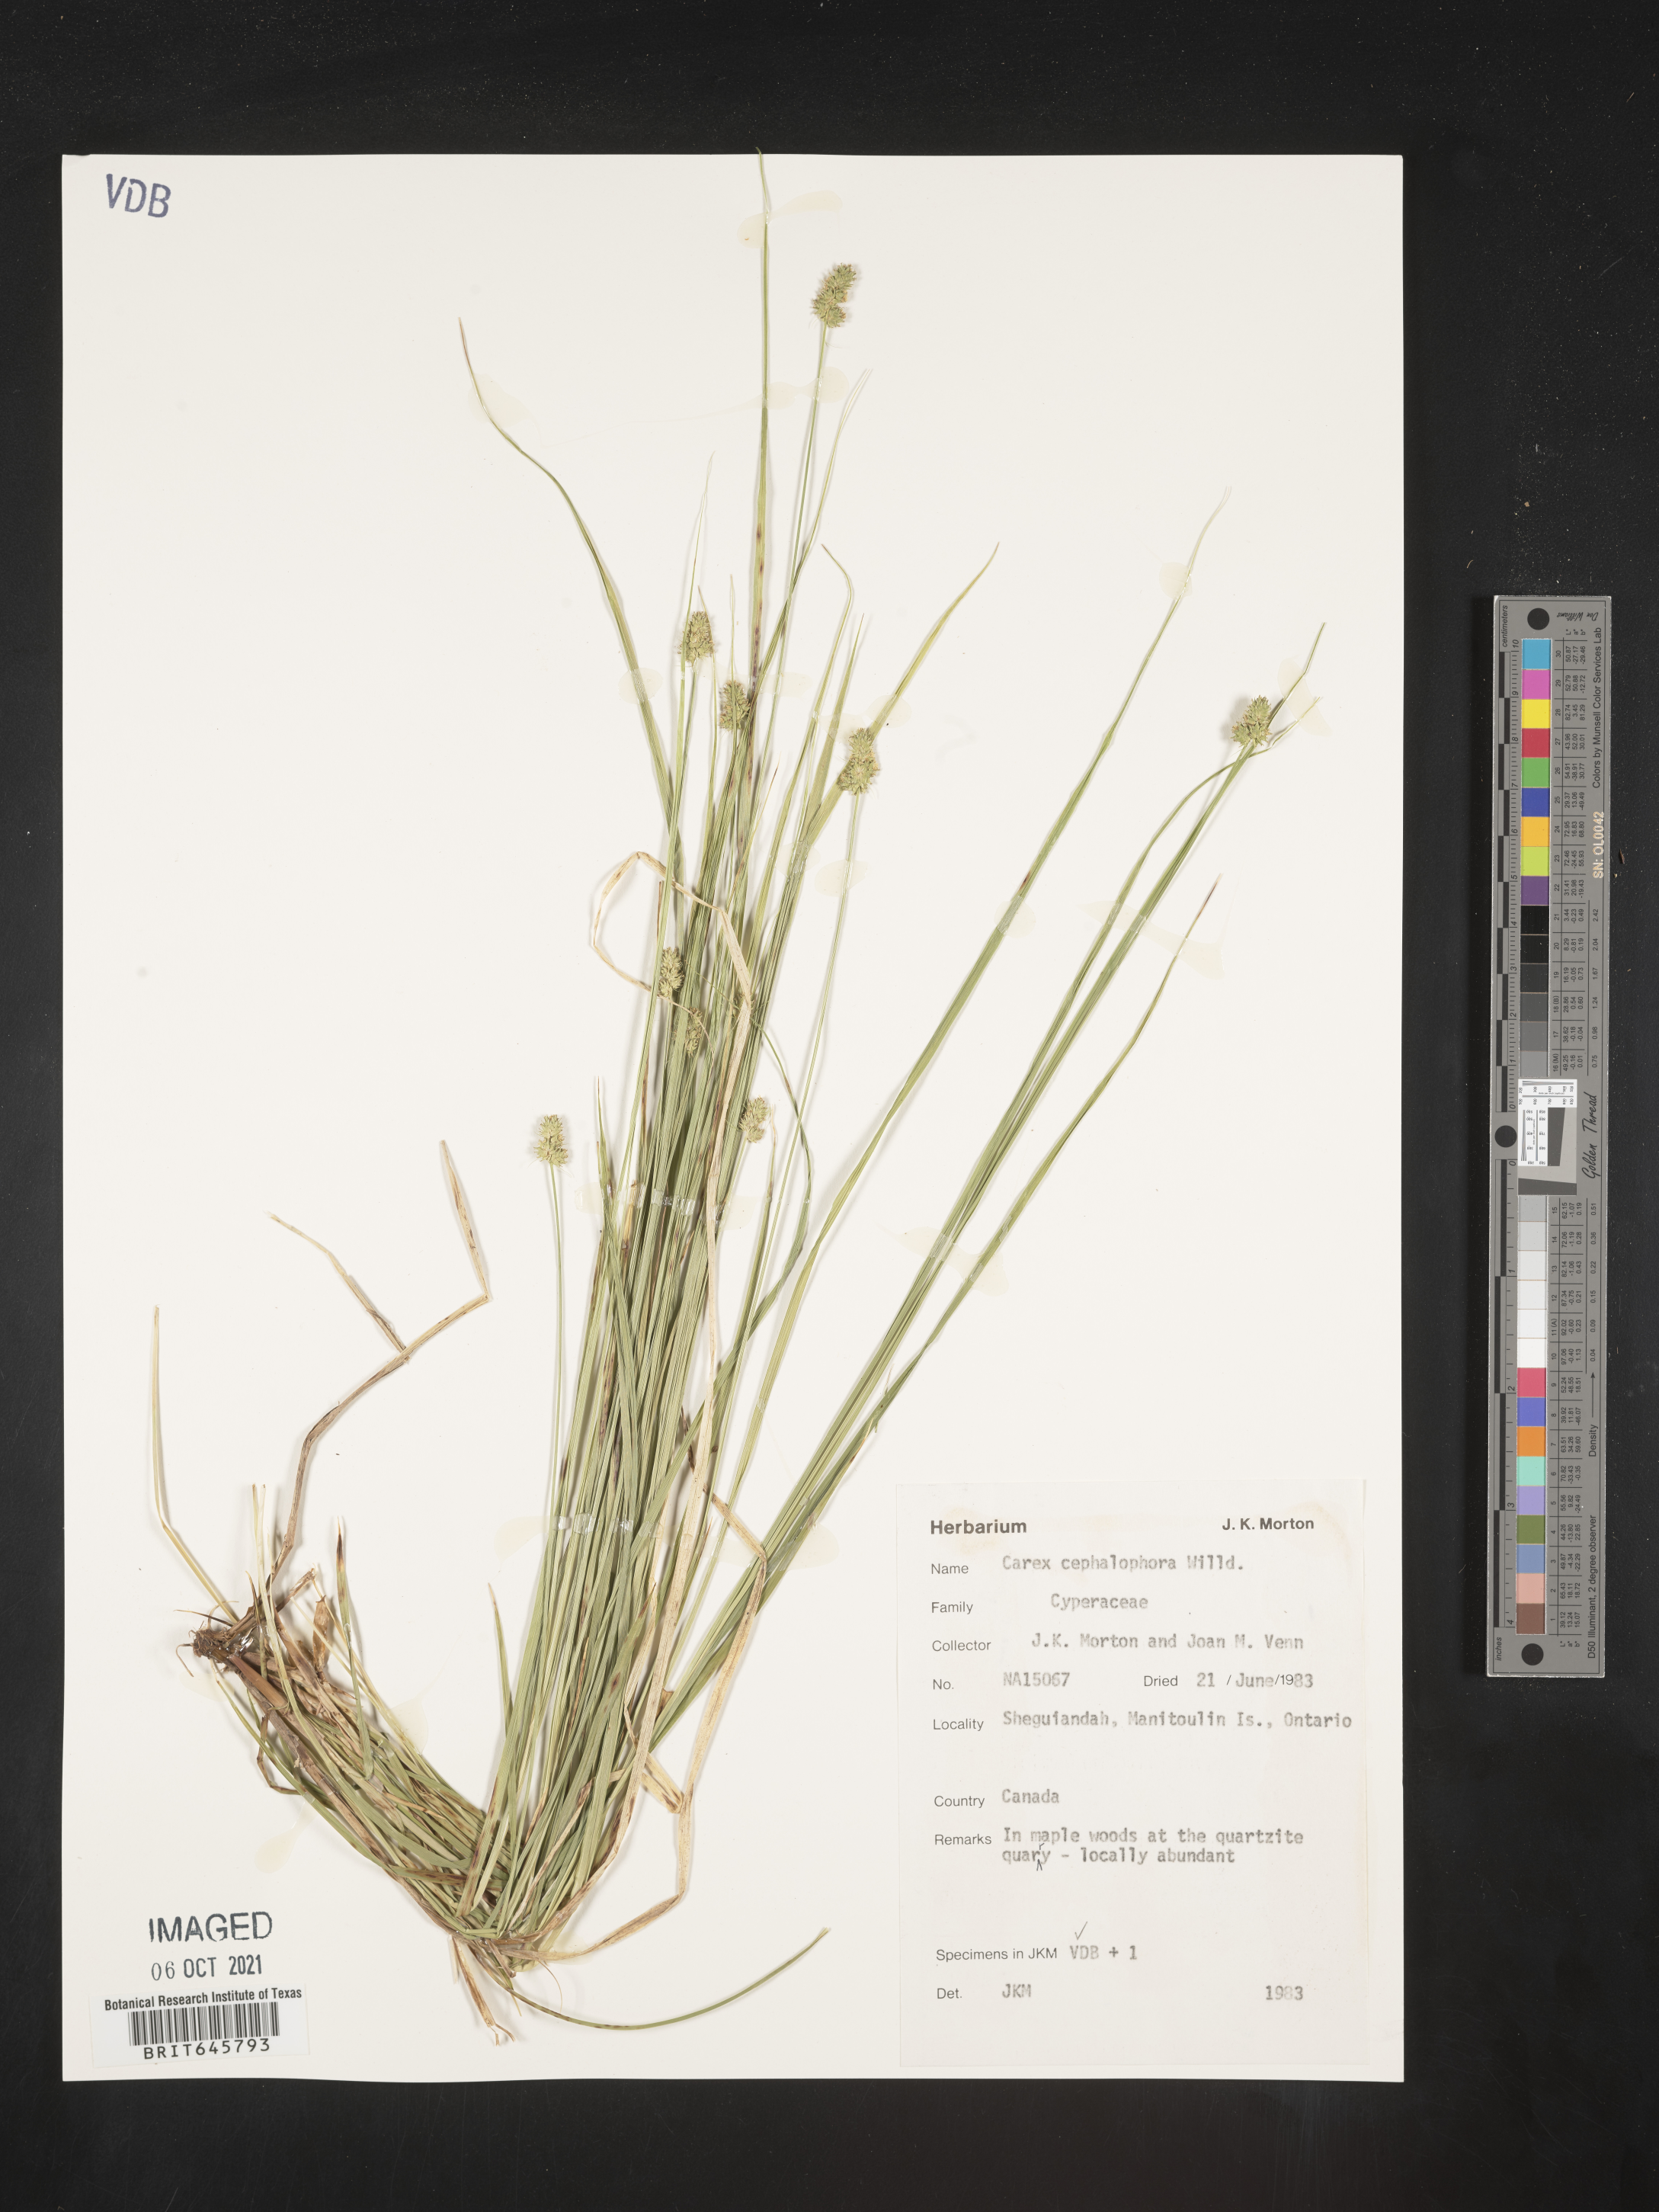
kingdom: Plantae
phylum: Tracheophyta
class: Liliopsida
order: Poales
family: Cyperaceae
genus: Carex
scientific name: Carex cephalophora
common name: Oval-headed sedge
